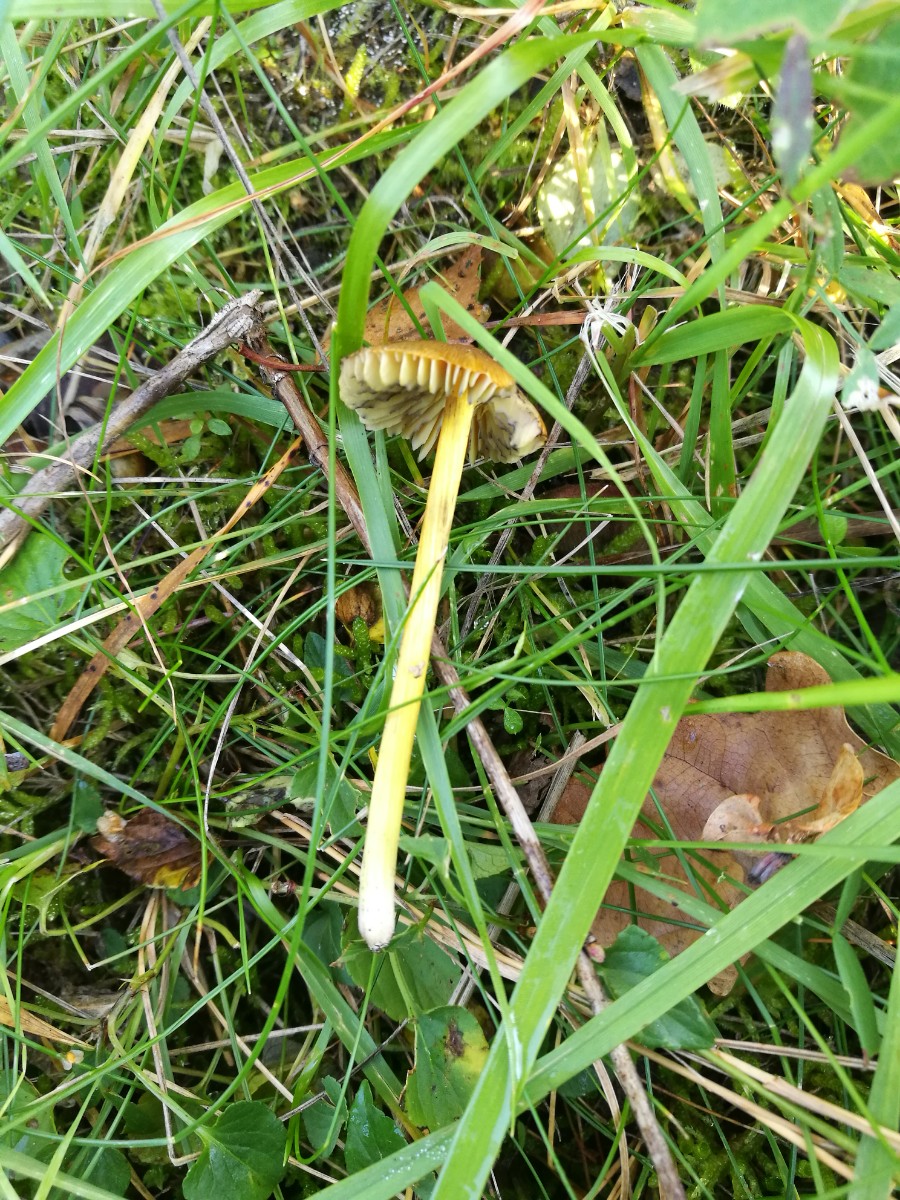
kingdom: Fungi
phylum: Basidiomycota
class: Agaricomycetes
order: Agaricales
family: Hygrophoraceae
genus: Hygrocybe
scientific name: Hygrocybe conica
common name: kegle-vokshat
